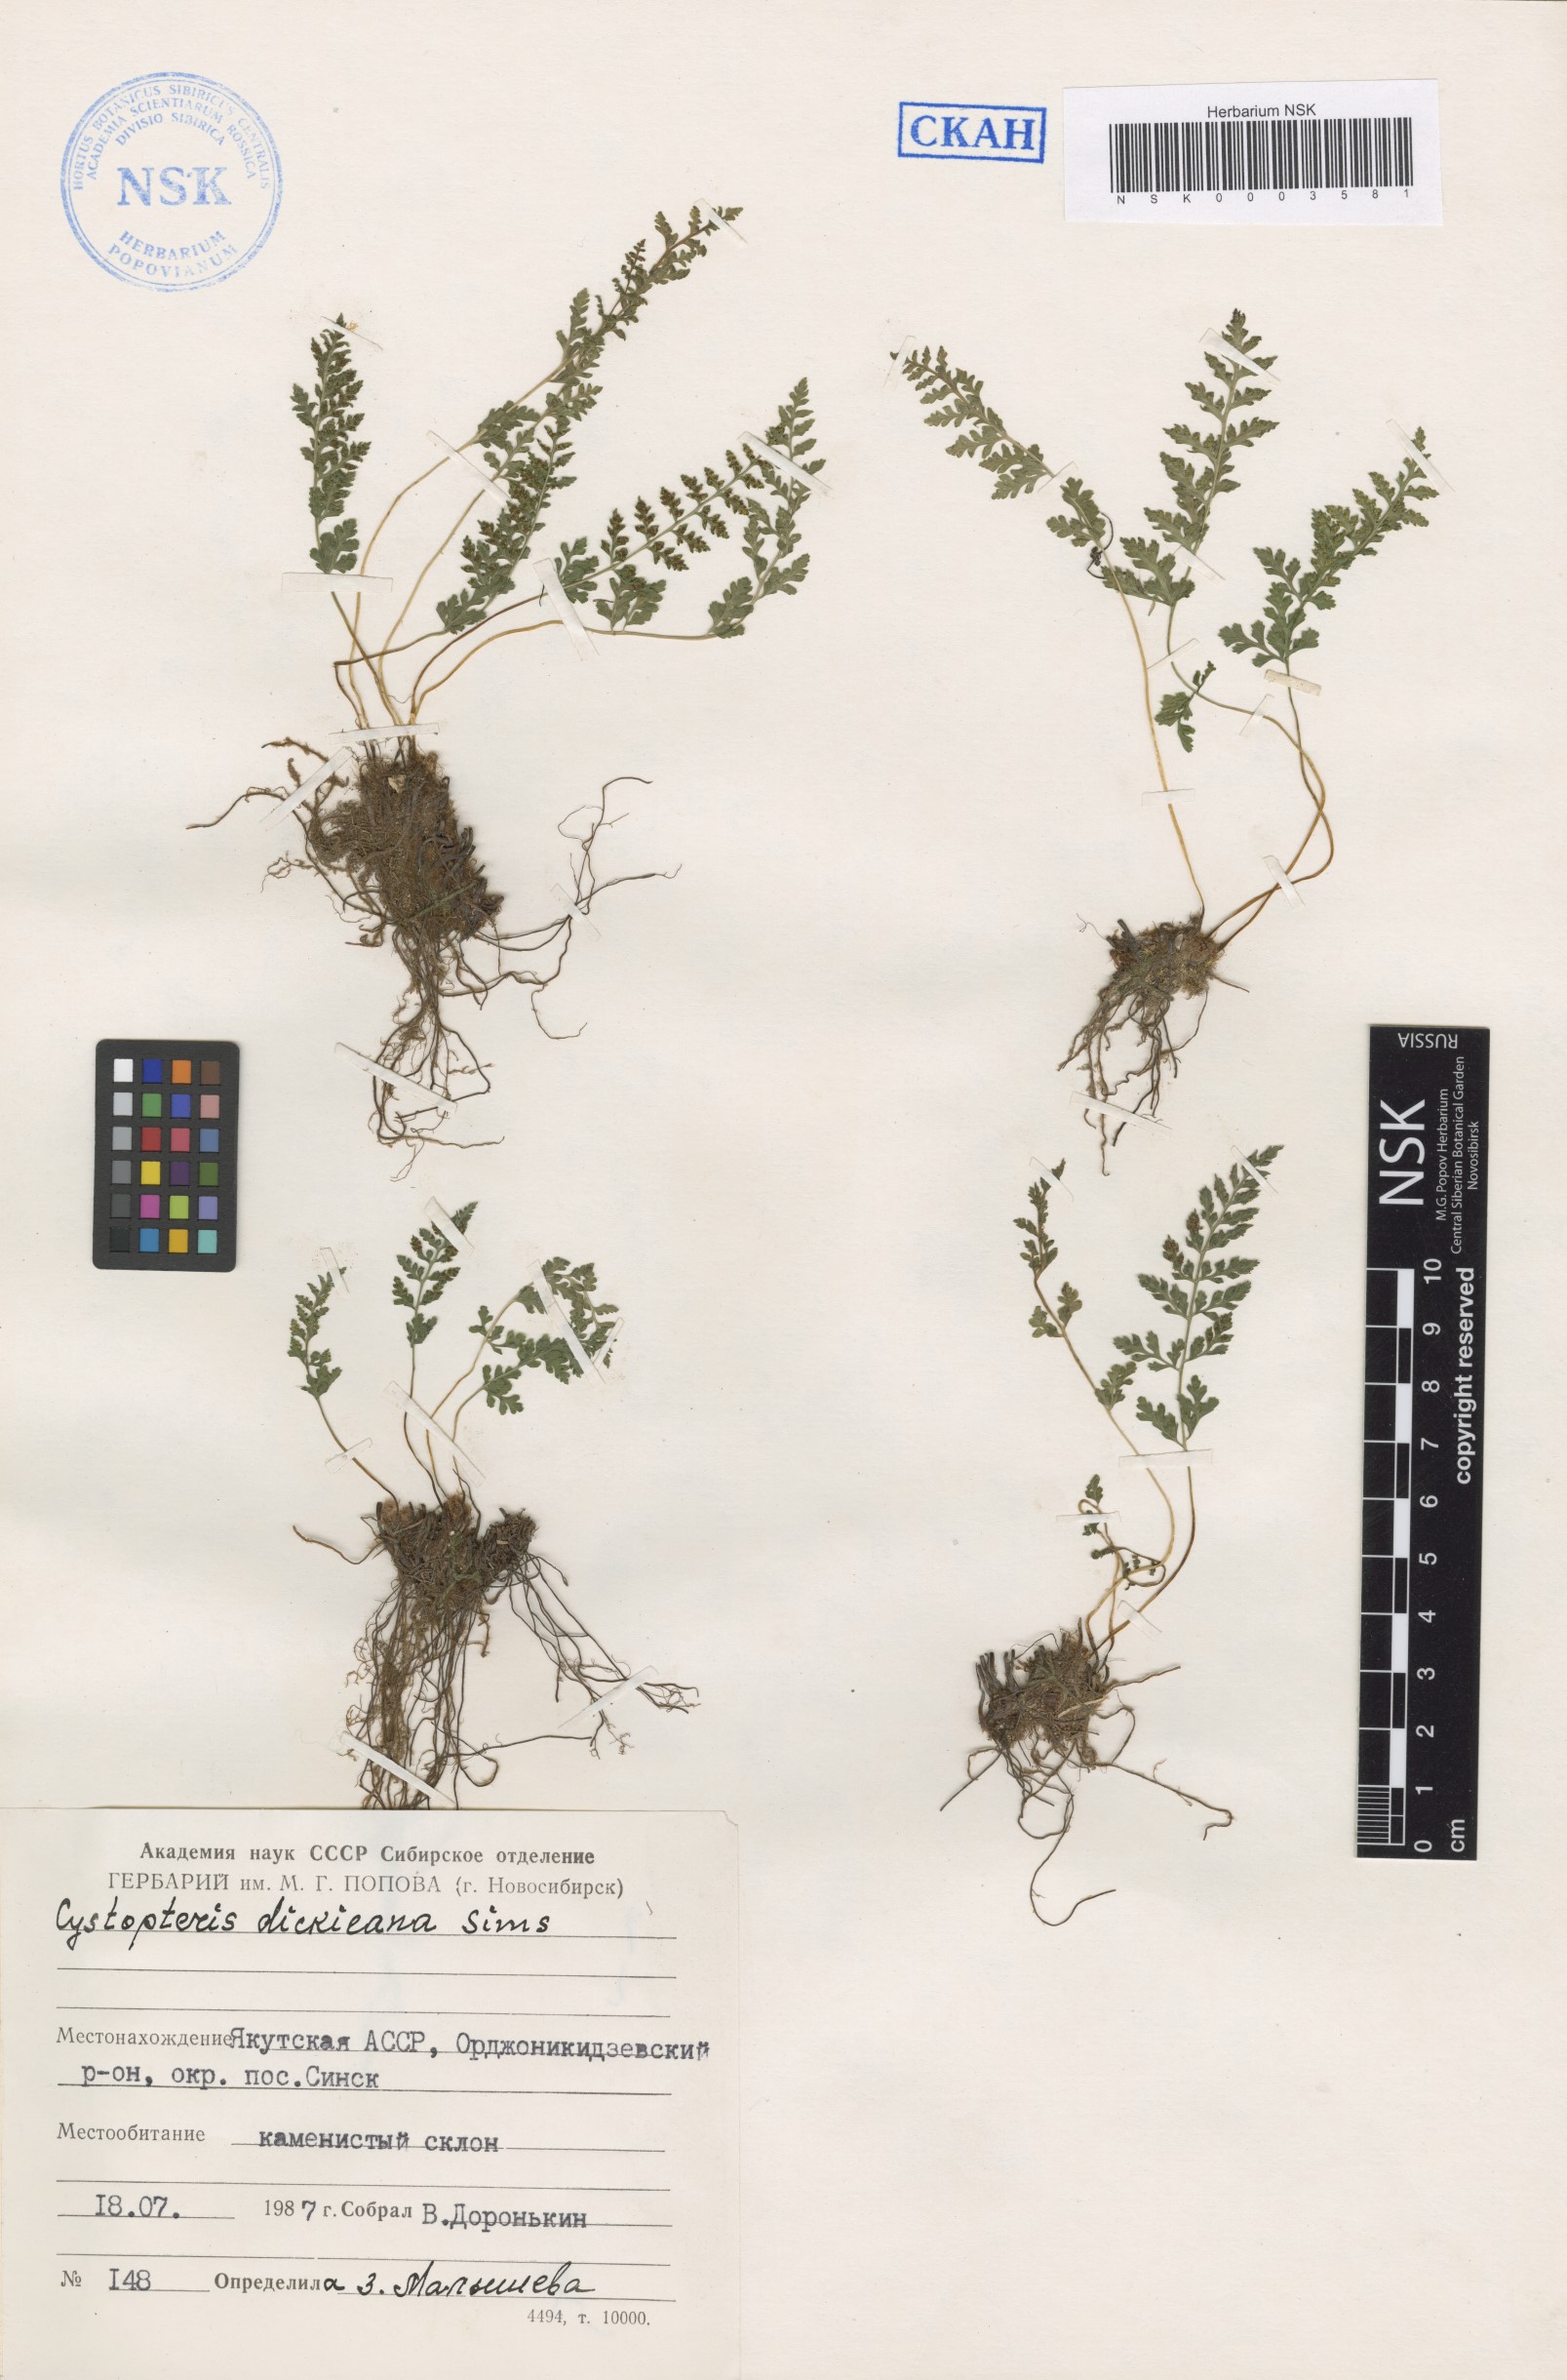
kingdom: Plantae
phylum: Tracheophyta
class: Polypodiopsida
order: Polypodiales
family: Cystopteridaceae
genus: Cystopteris
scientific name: Cystopteris dickieana
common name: Dickie's bladder-fern
